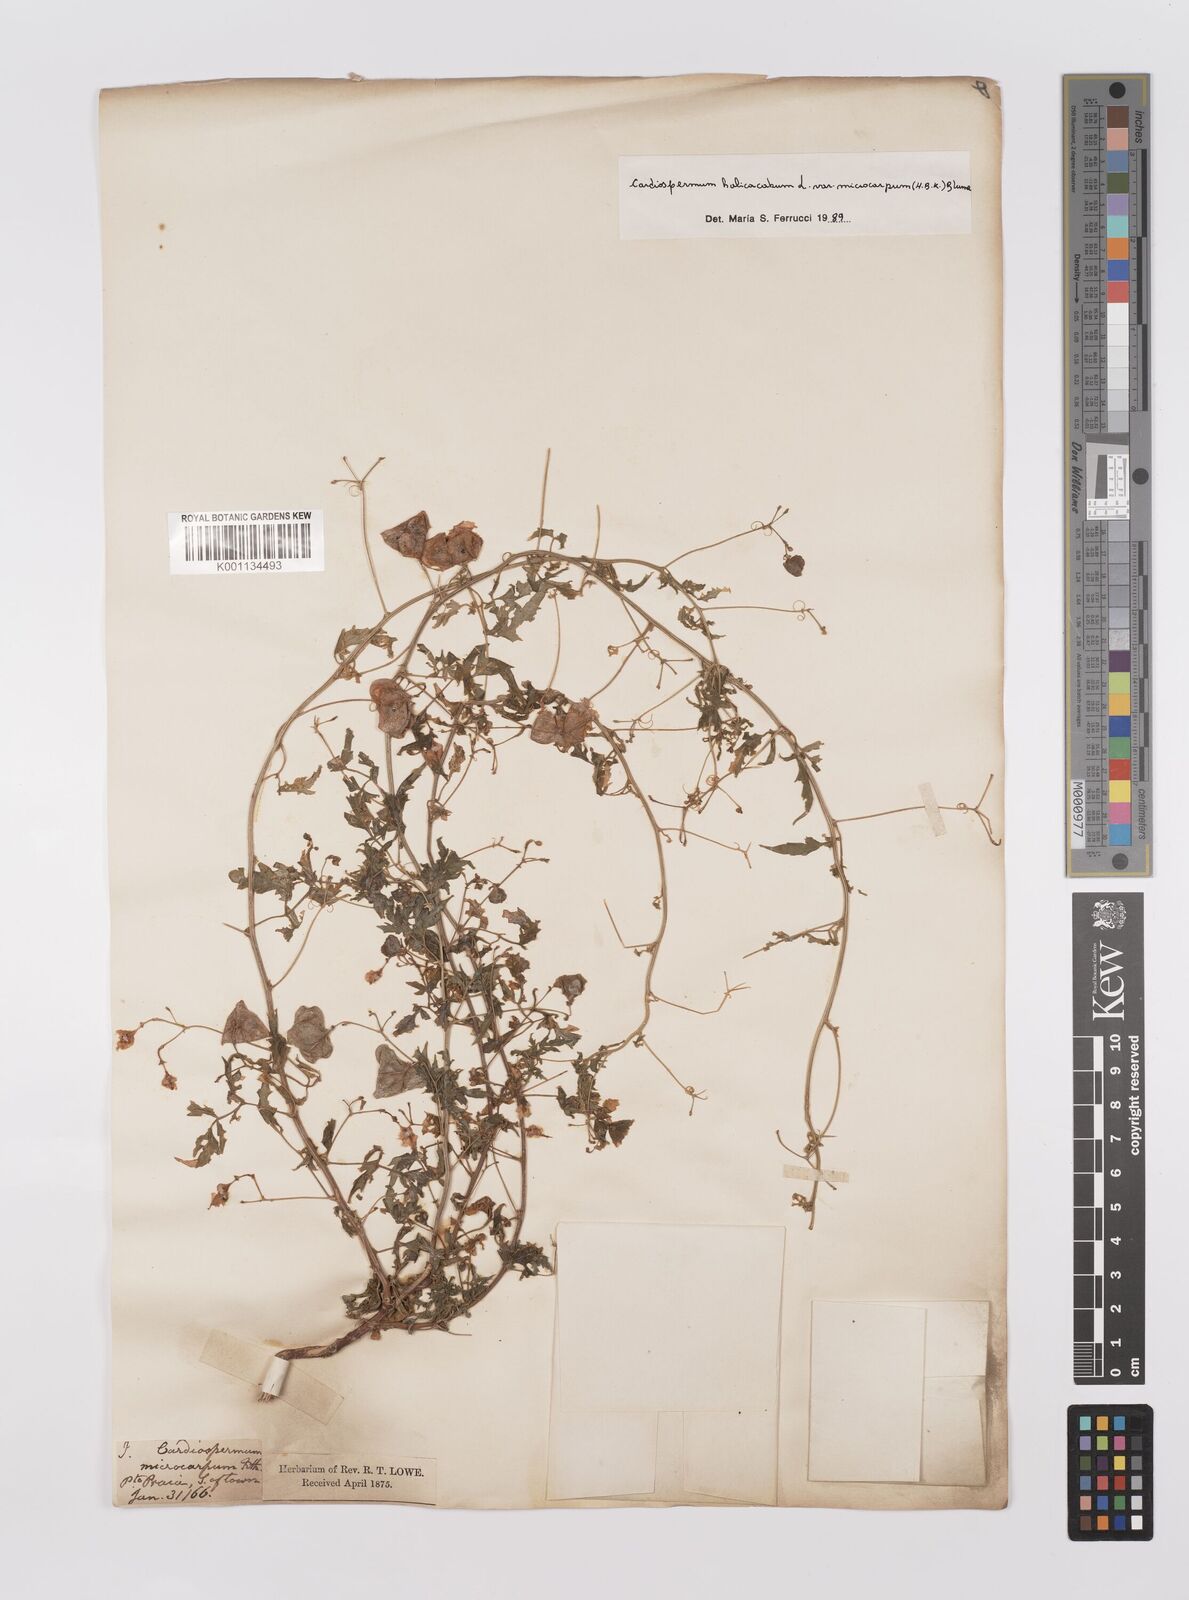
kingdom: Plantae
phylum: Tracheophyta
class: Magnoliopsida
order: Sapindales
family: Sapindaceae
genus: Cardiospermum
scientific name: Cardiospermum microcarpum
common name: Heart seed
